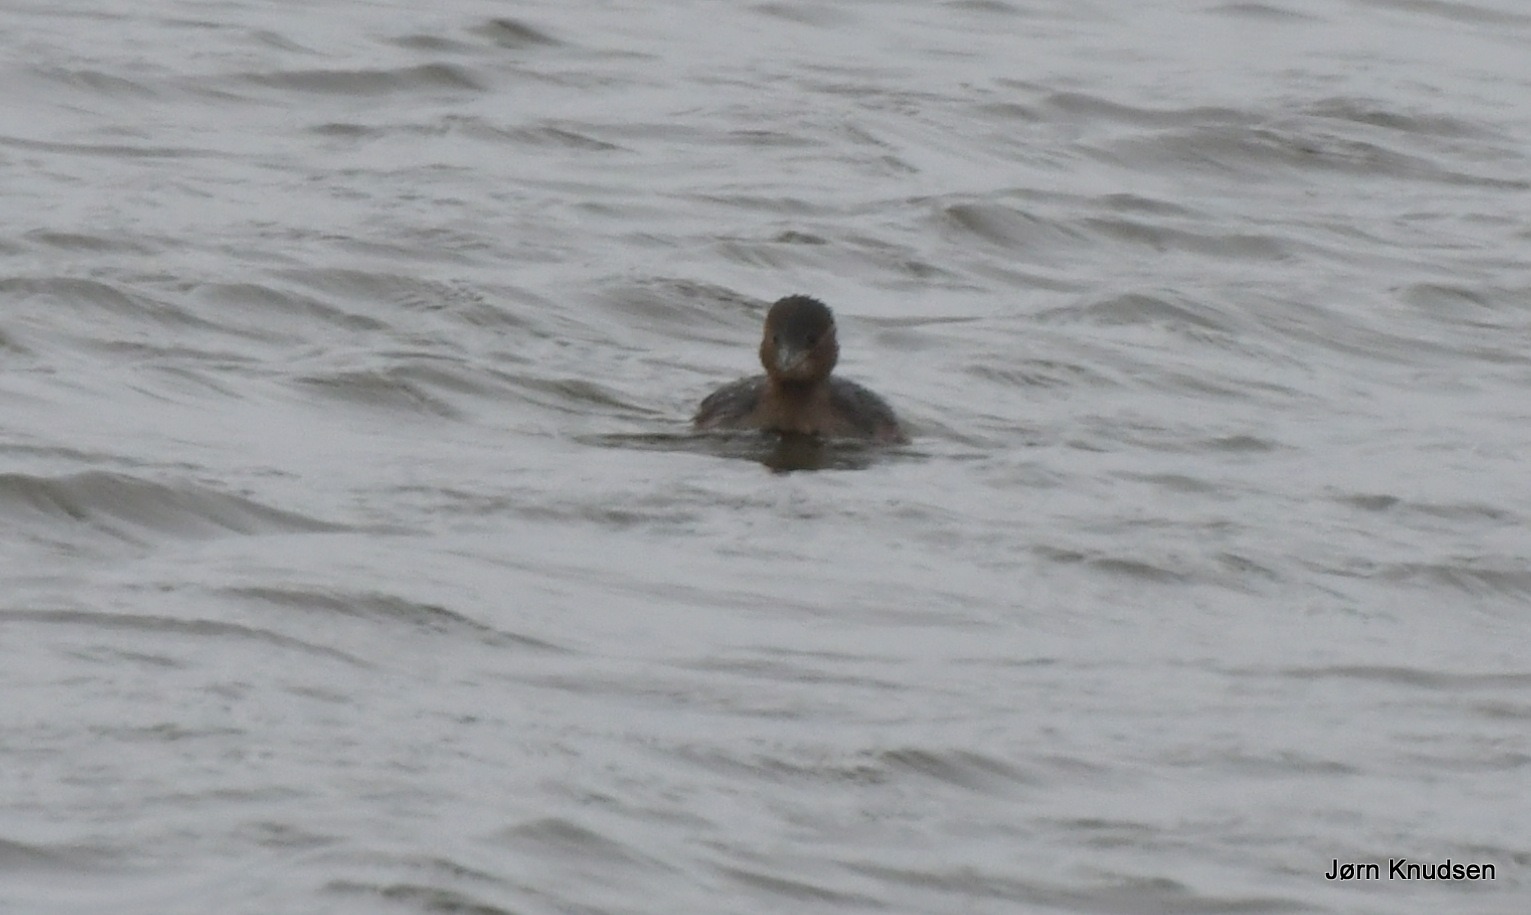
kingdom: Animalia
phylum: Chordata
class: Aves
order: Podicipediformes
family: Podicipedidae
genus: Tachybaptus
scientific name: Tachybaptus ruficollis
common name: Lille lappedykker
